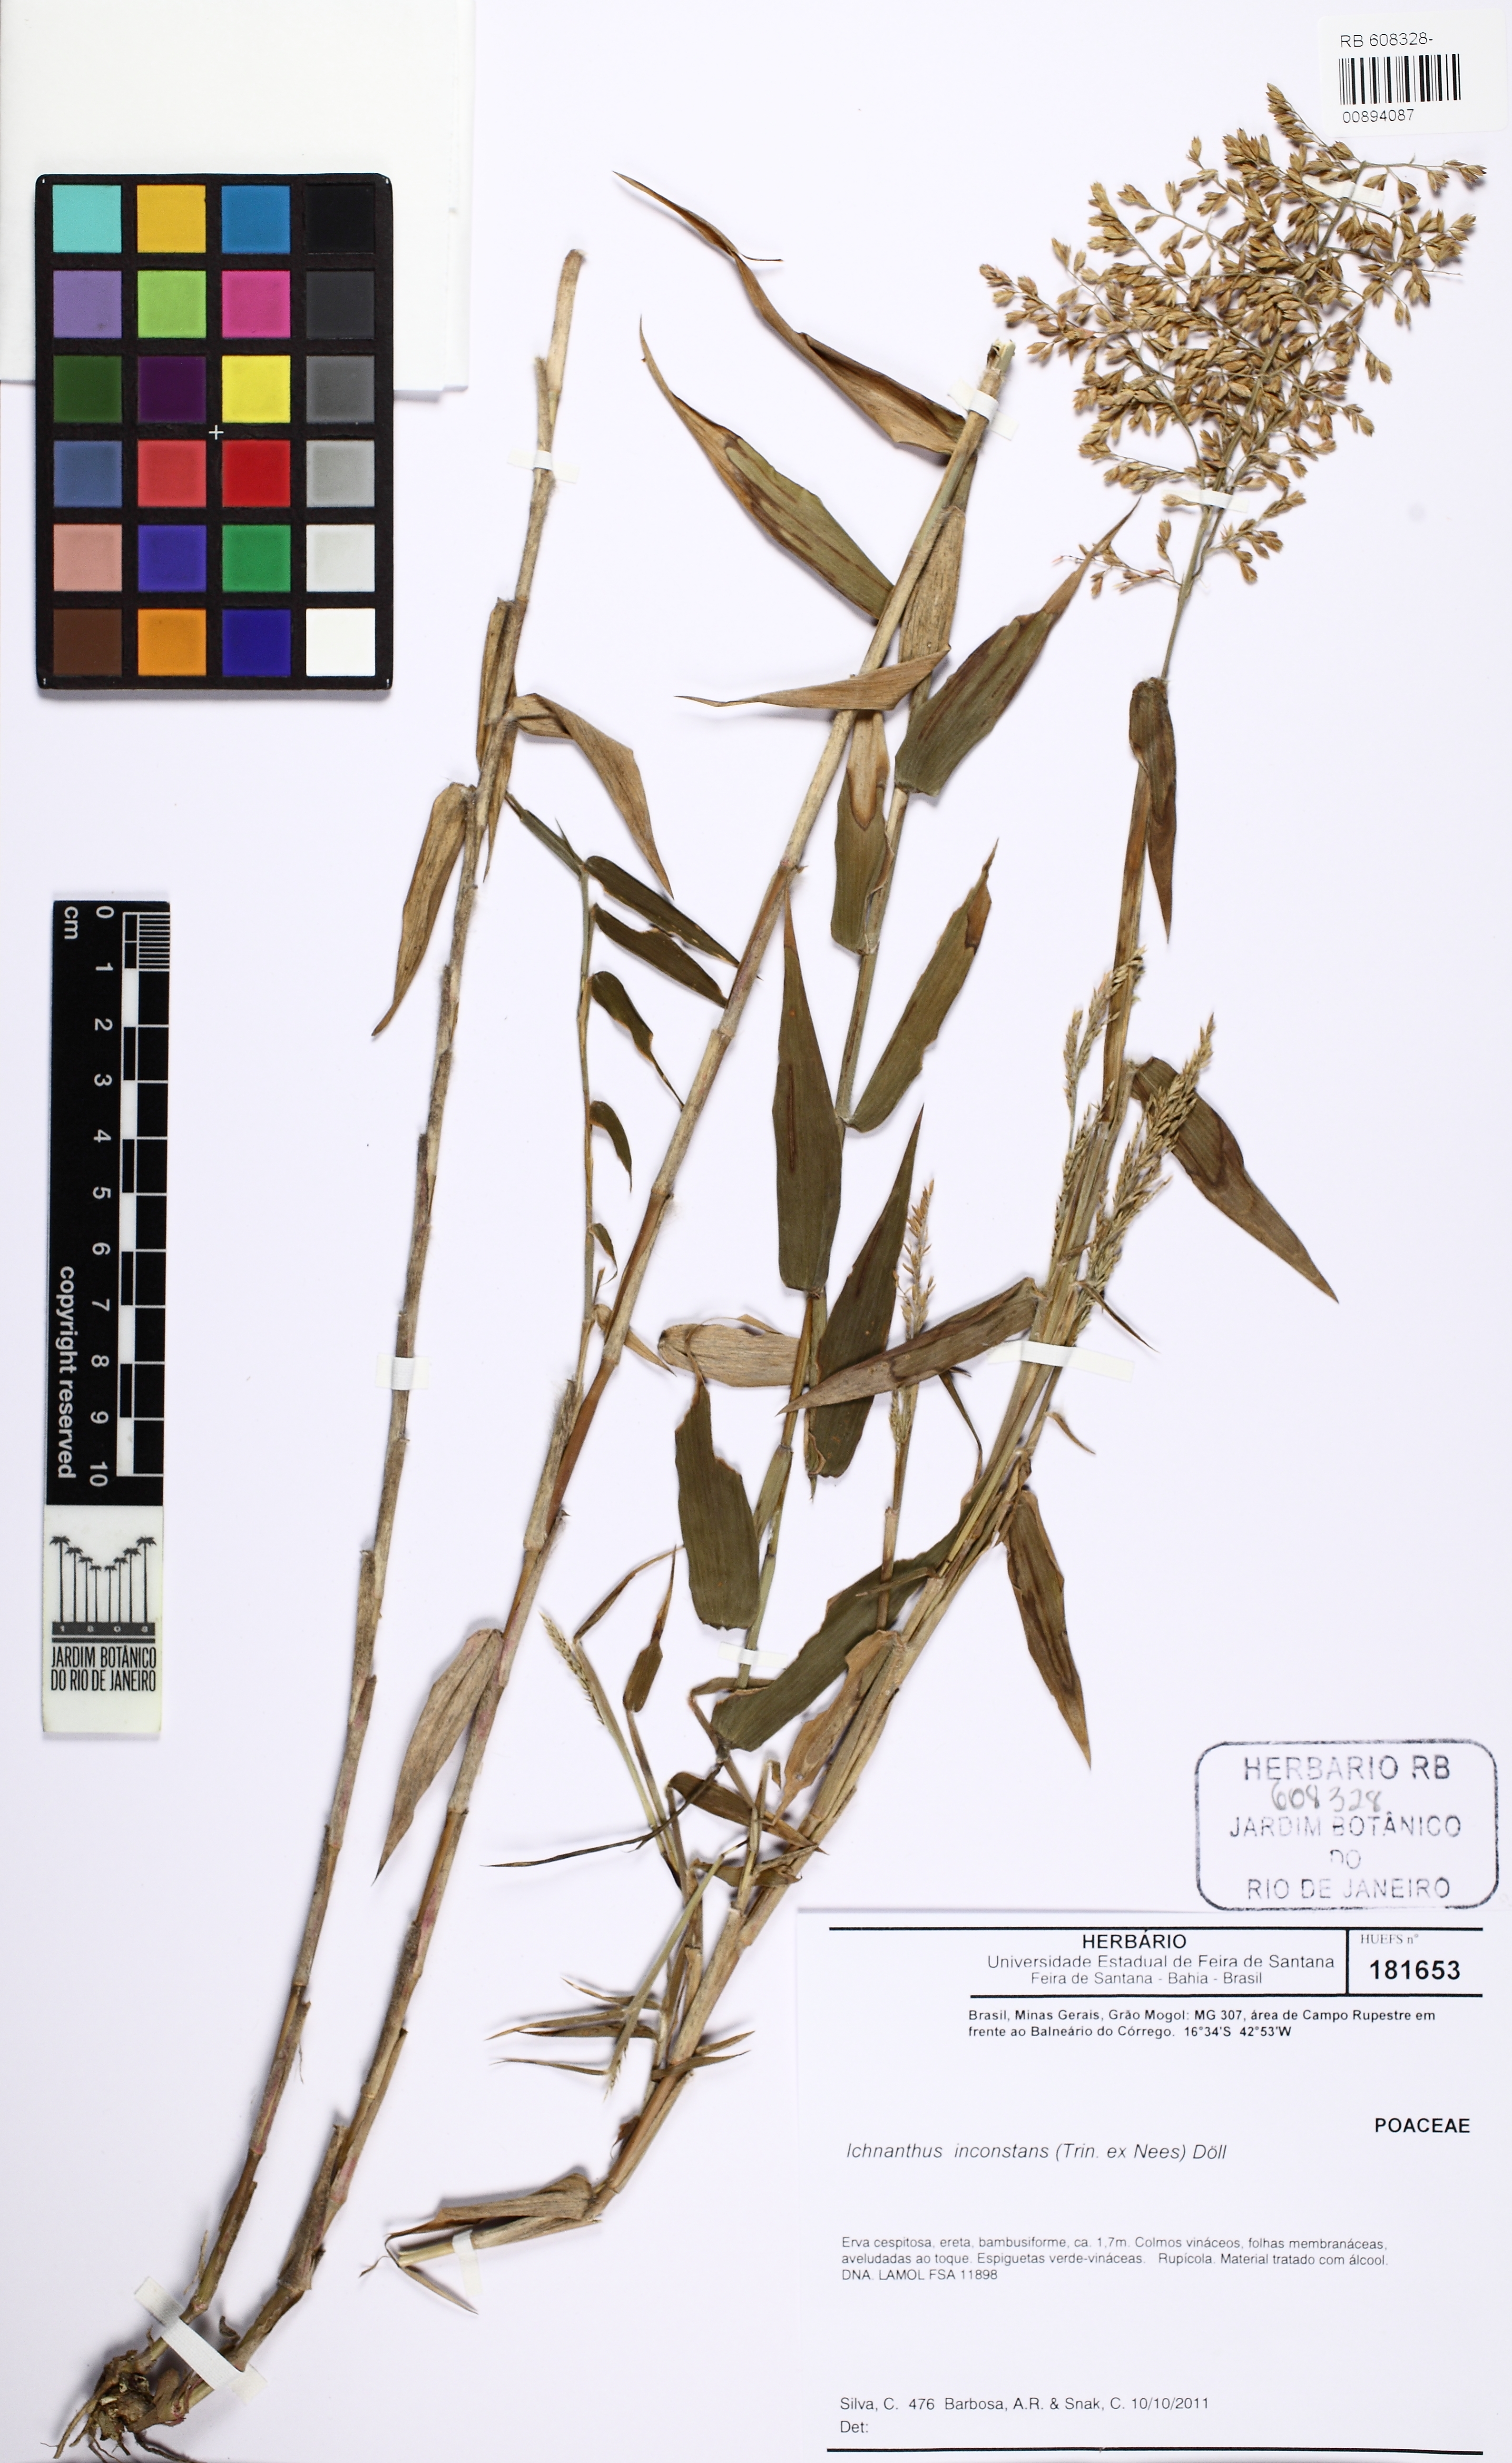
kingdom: Plantae
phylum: Tracheophyta
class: Liliopsida
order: Poales
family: Poaceae
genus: Ichnanthus
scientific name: Ichnanthus inconstans
